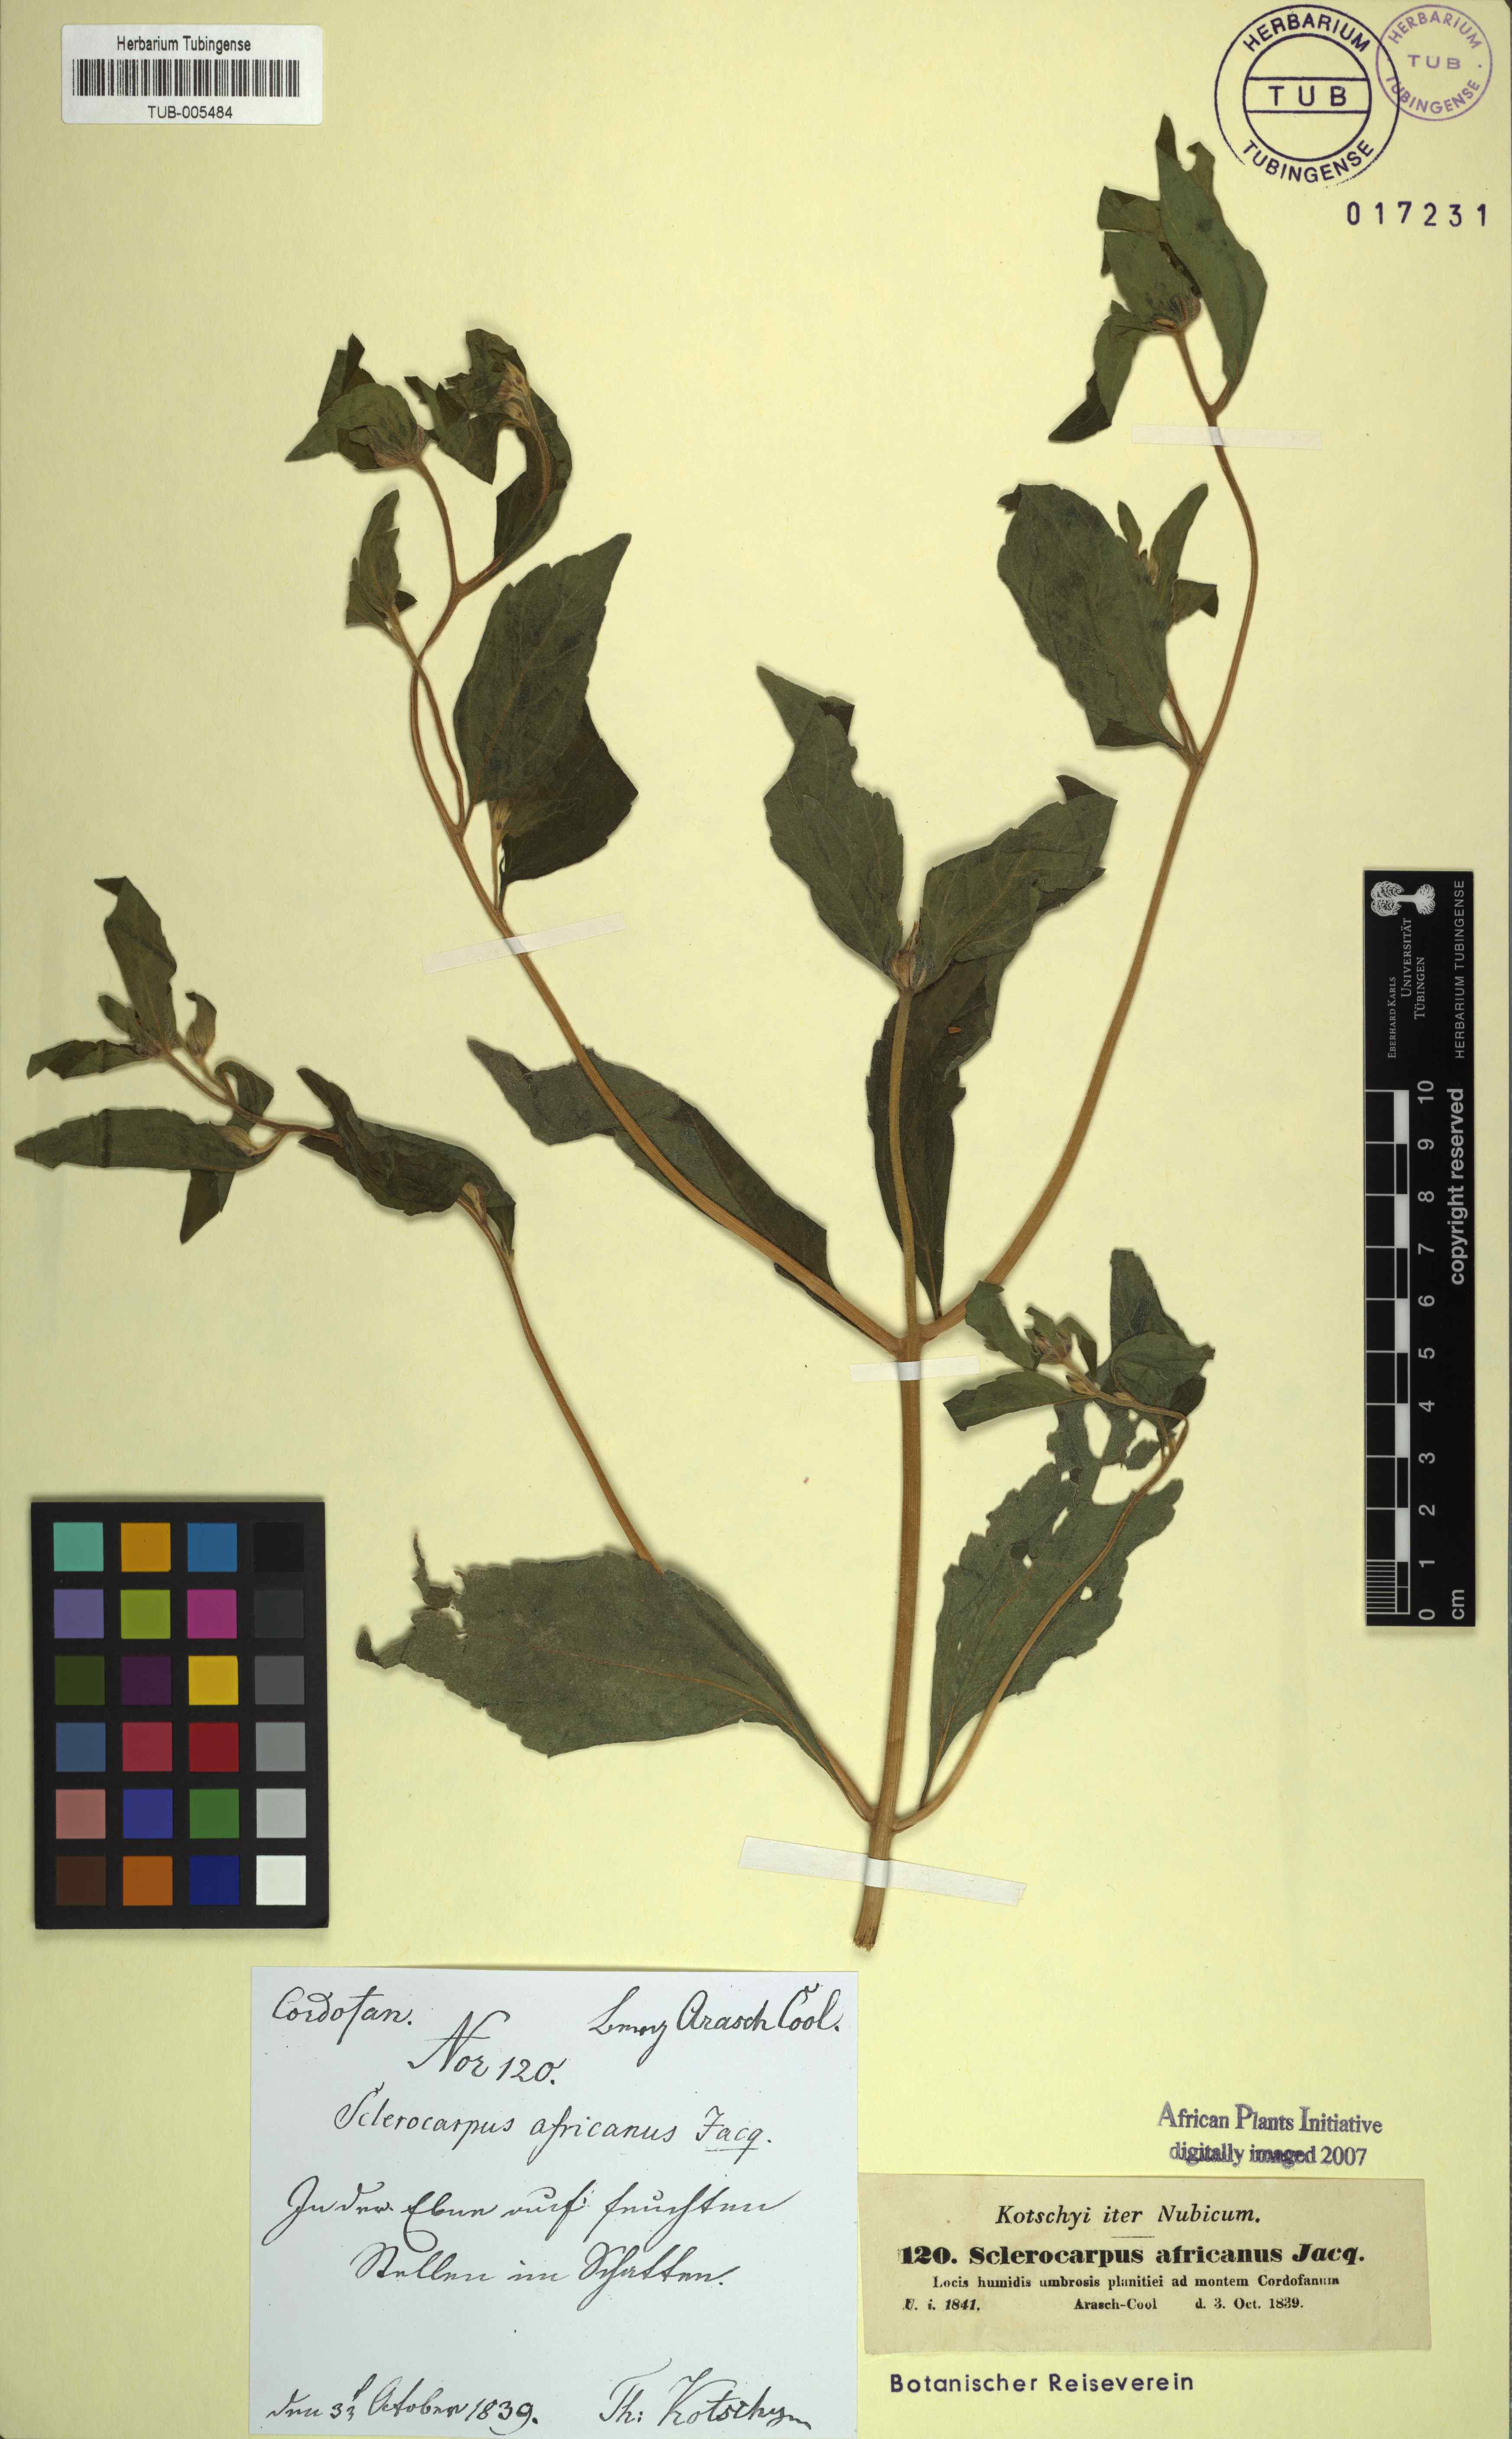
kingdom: Plantae
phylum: Tracheophyta
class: Magnoliopsida
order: Asterales
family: Asteraceae
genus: Sclerocarpus
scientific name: Sclerocarpus africanus
